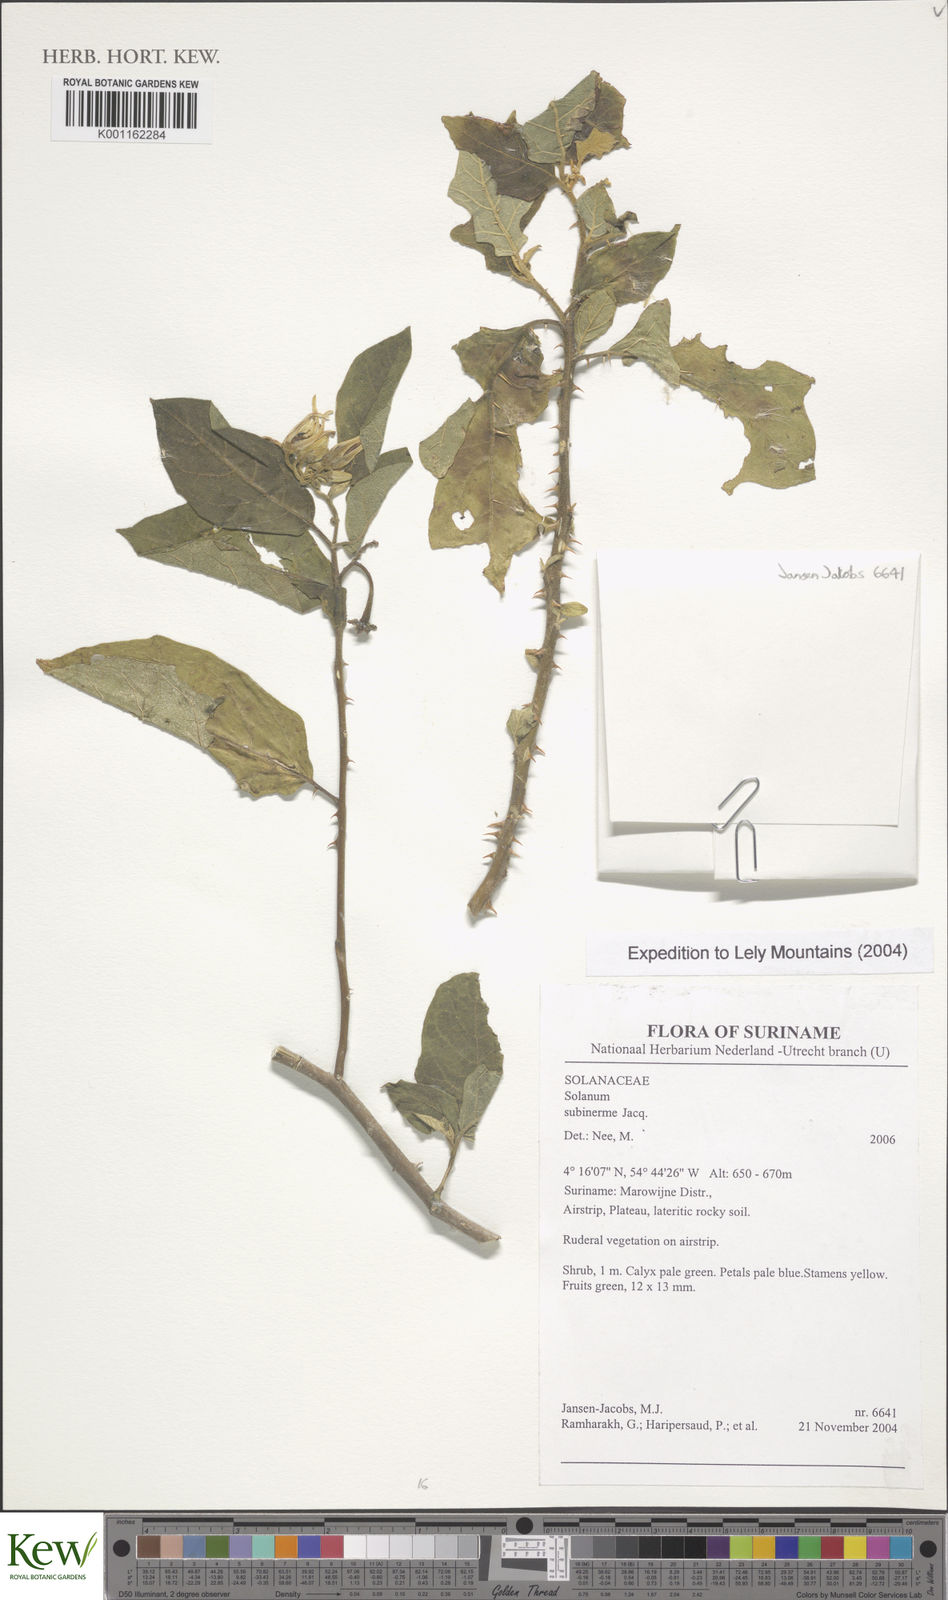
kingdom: Plantae
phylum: Tracheophyta
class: Magnoliopsida
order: Solanales
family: Solanaceae
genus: Solanum
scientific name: Solanum subinerme
